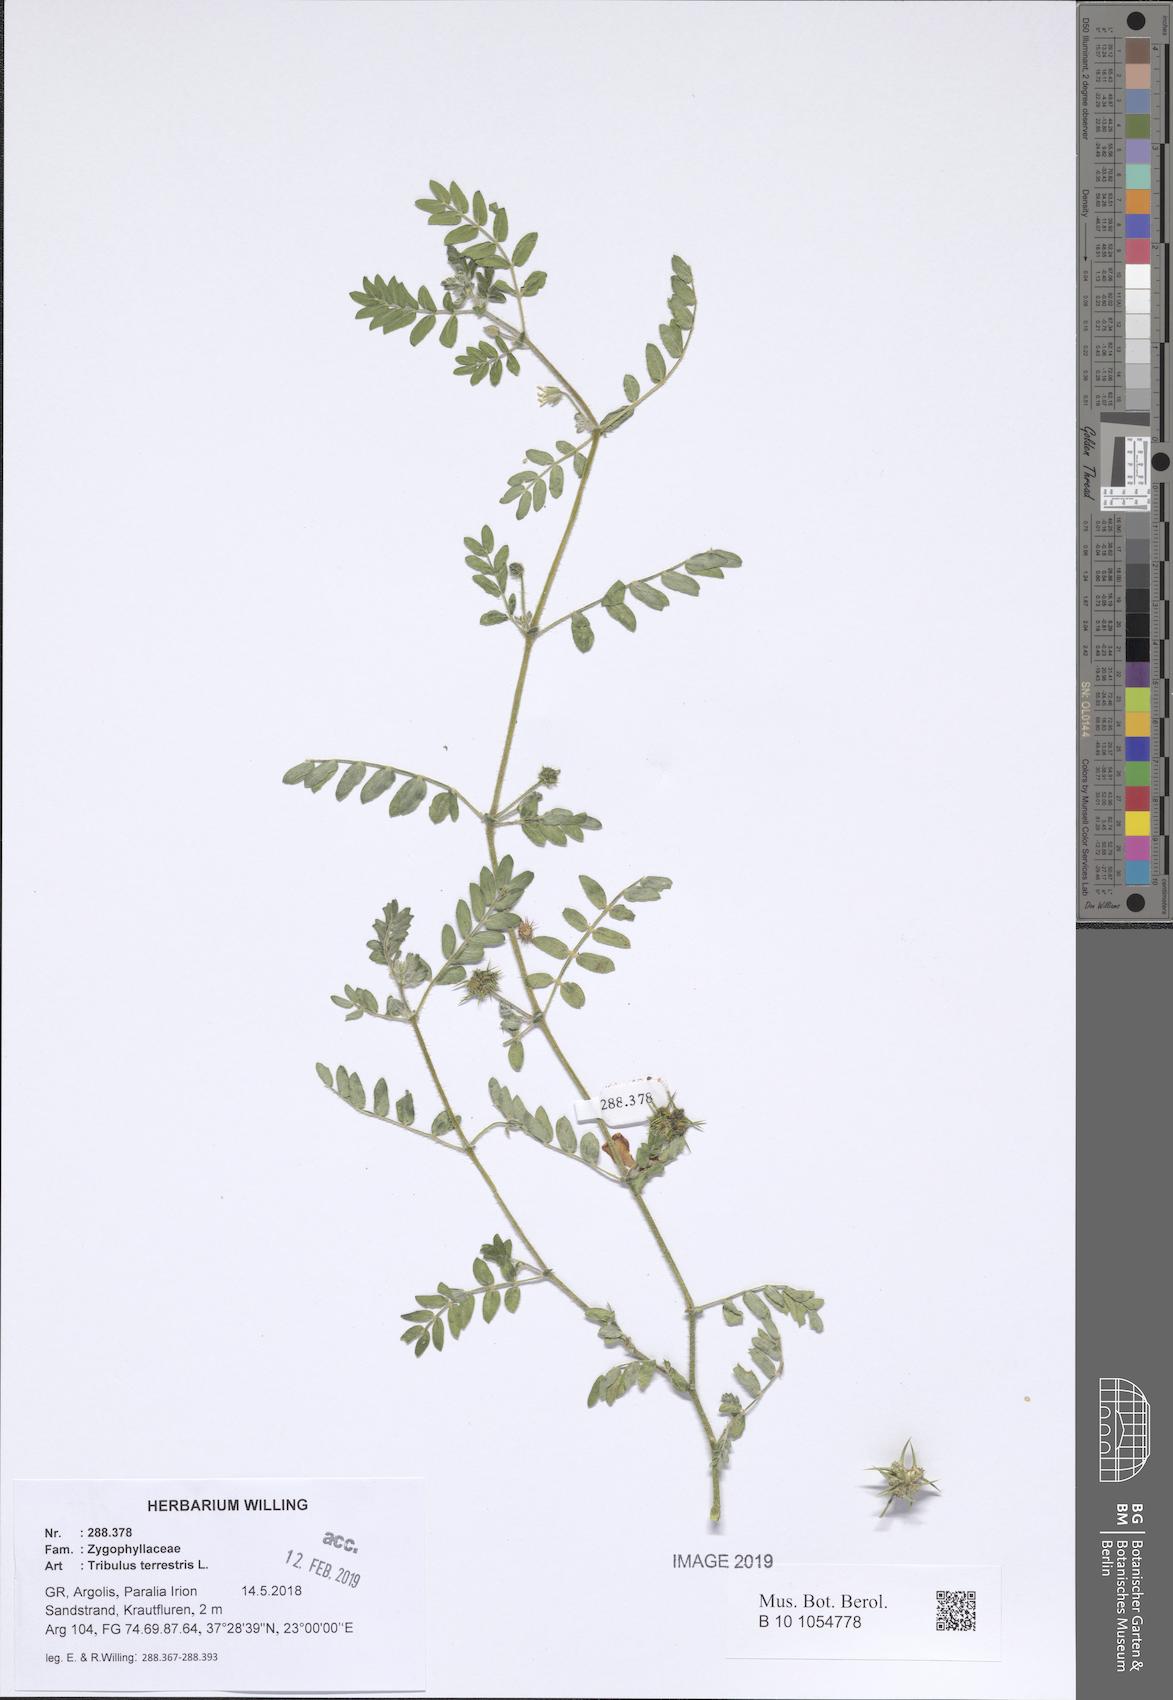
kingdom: Plantae
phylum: Tracheophyta
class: Magnoliopsida
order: Zygophyllales
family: Zygophyllaceae
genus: Tribulus
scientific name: Tribulus terrestris
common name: Puncturevine
